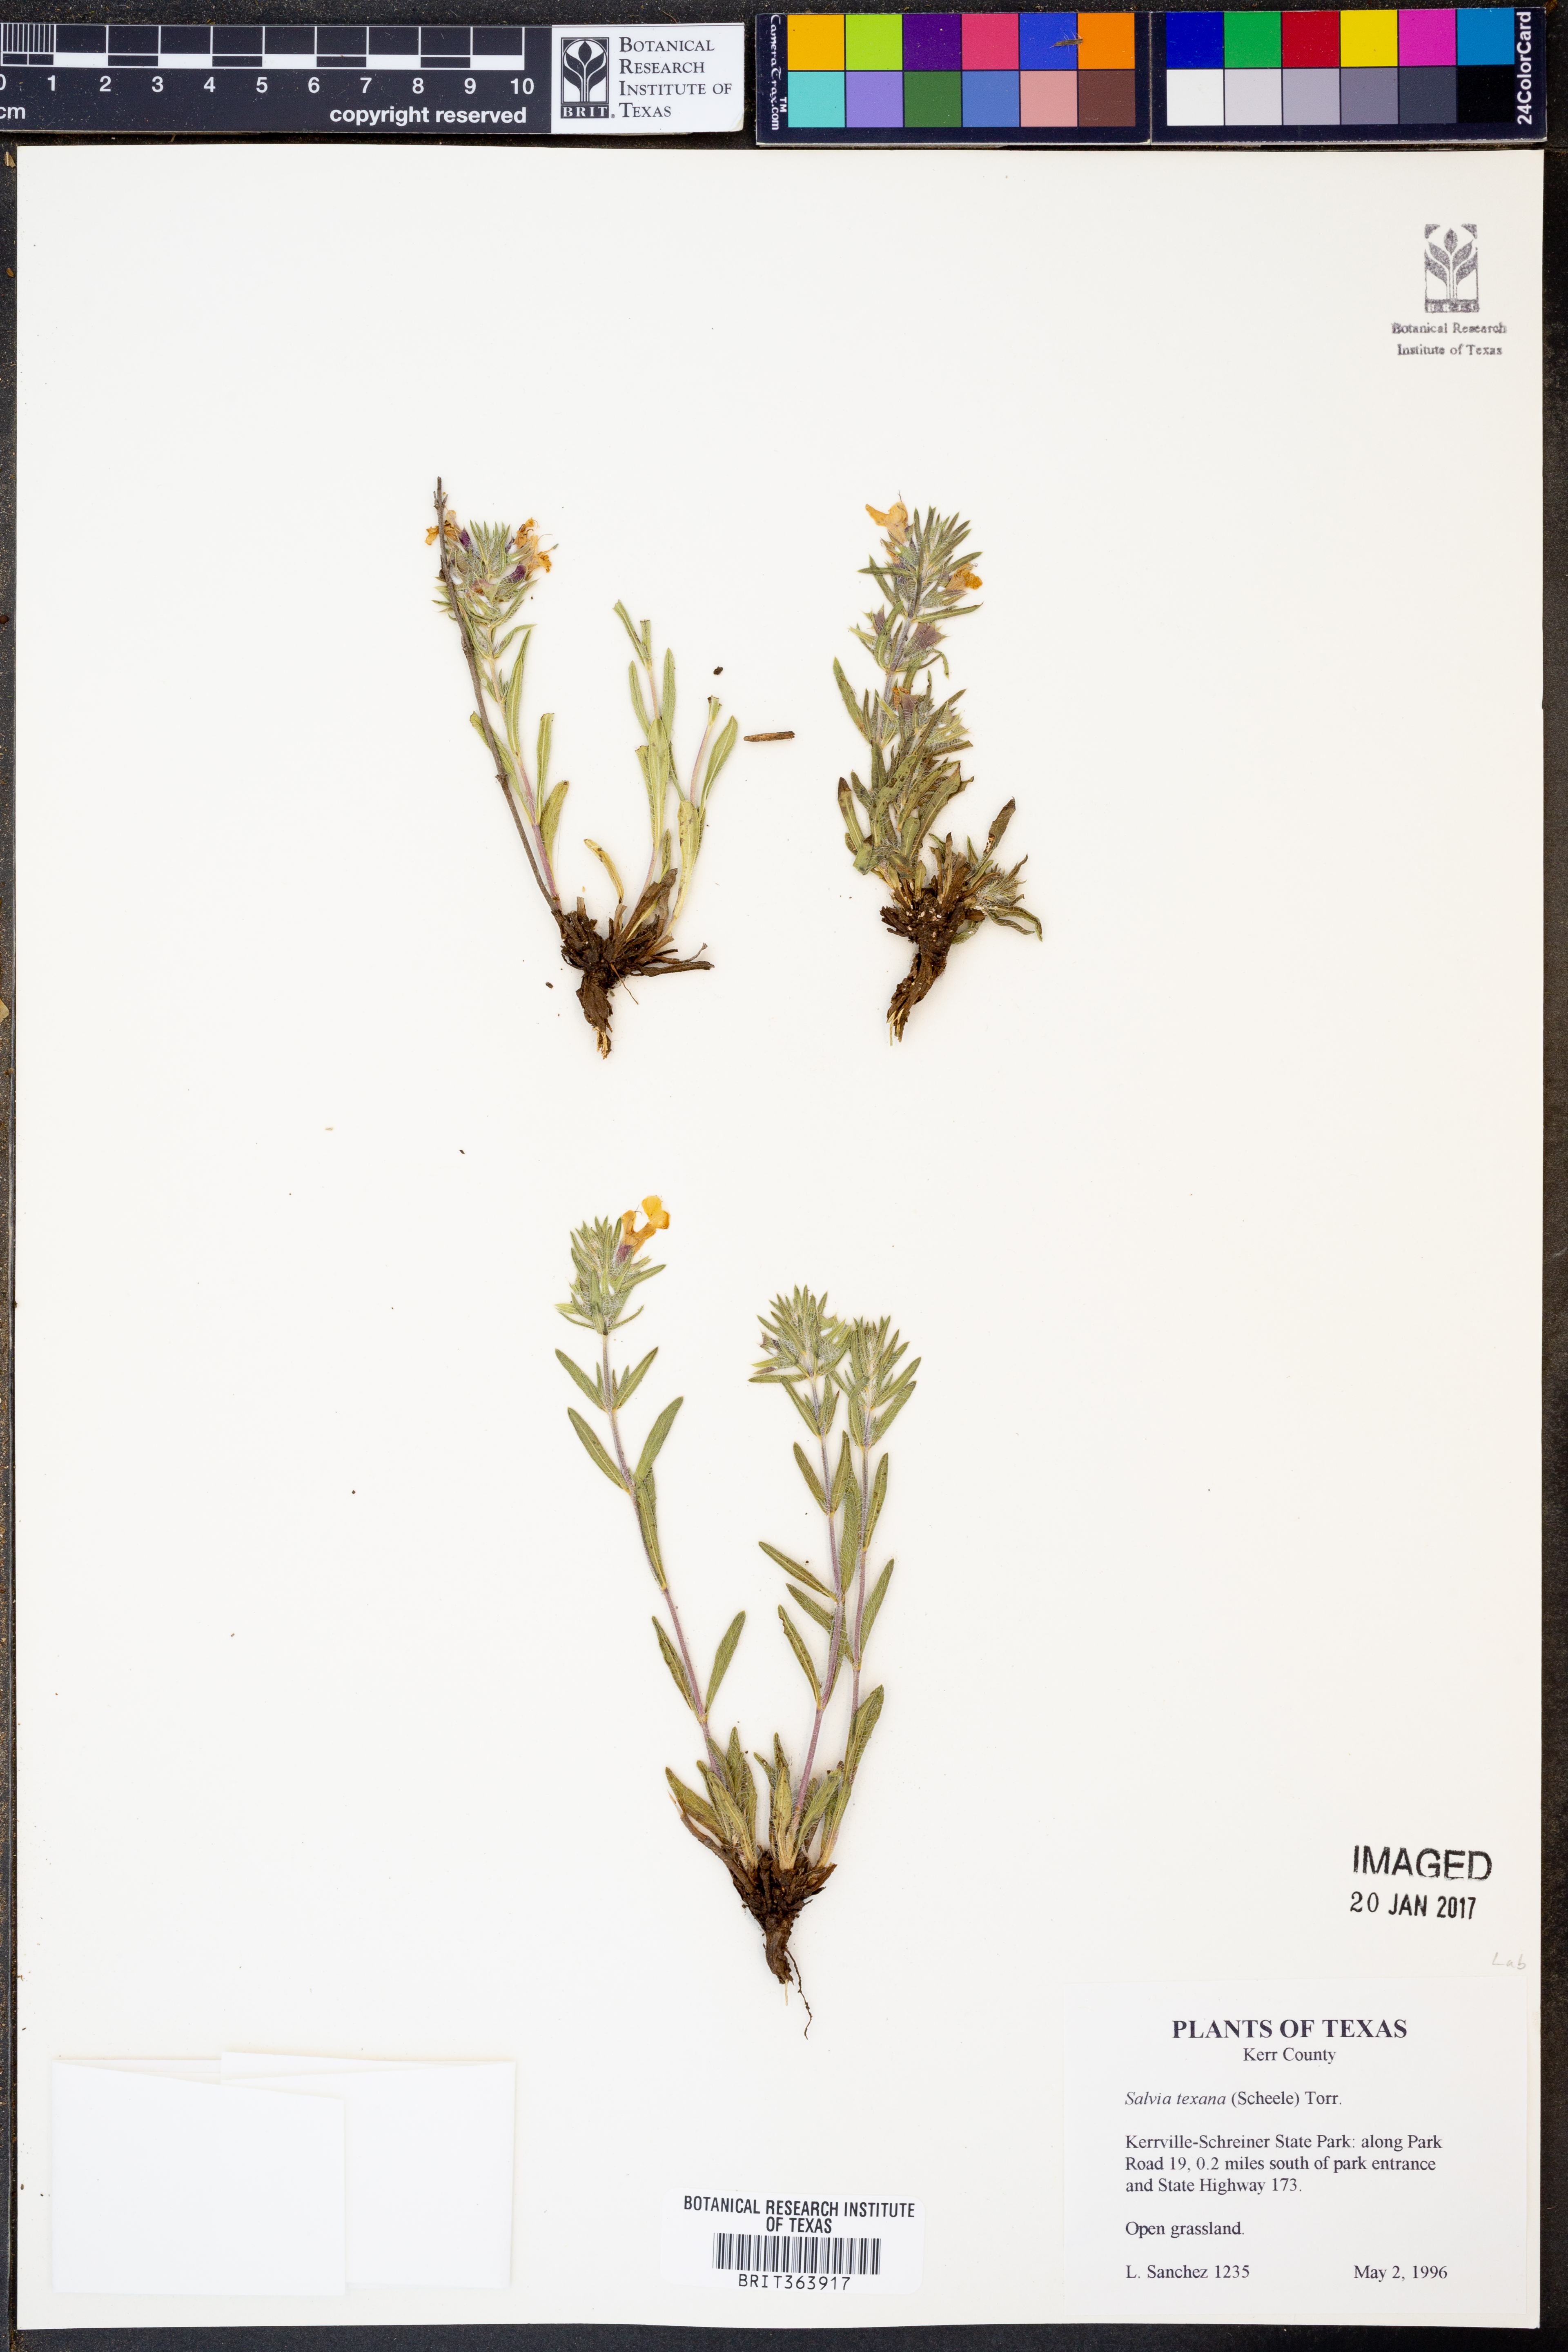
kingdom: Plantae
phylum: Tracheophyta
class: Magnoliopsida
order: Lamiales
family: Lamiaceae
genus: Salvia
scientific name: Salvia texana
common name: Texas sage
